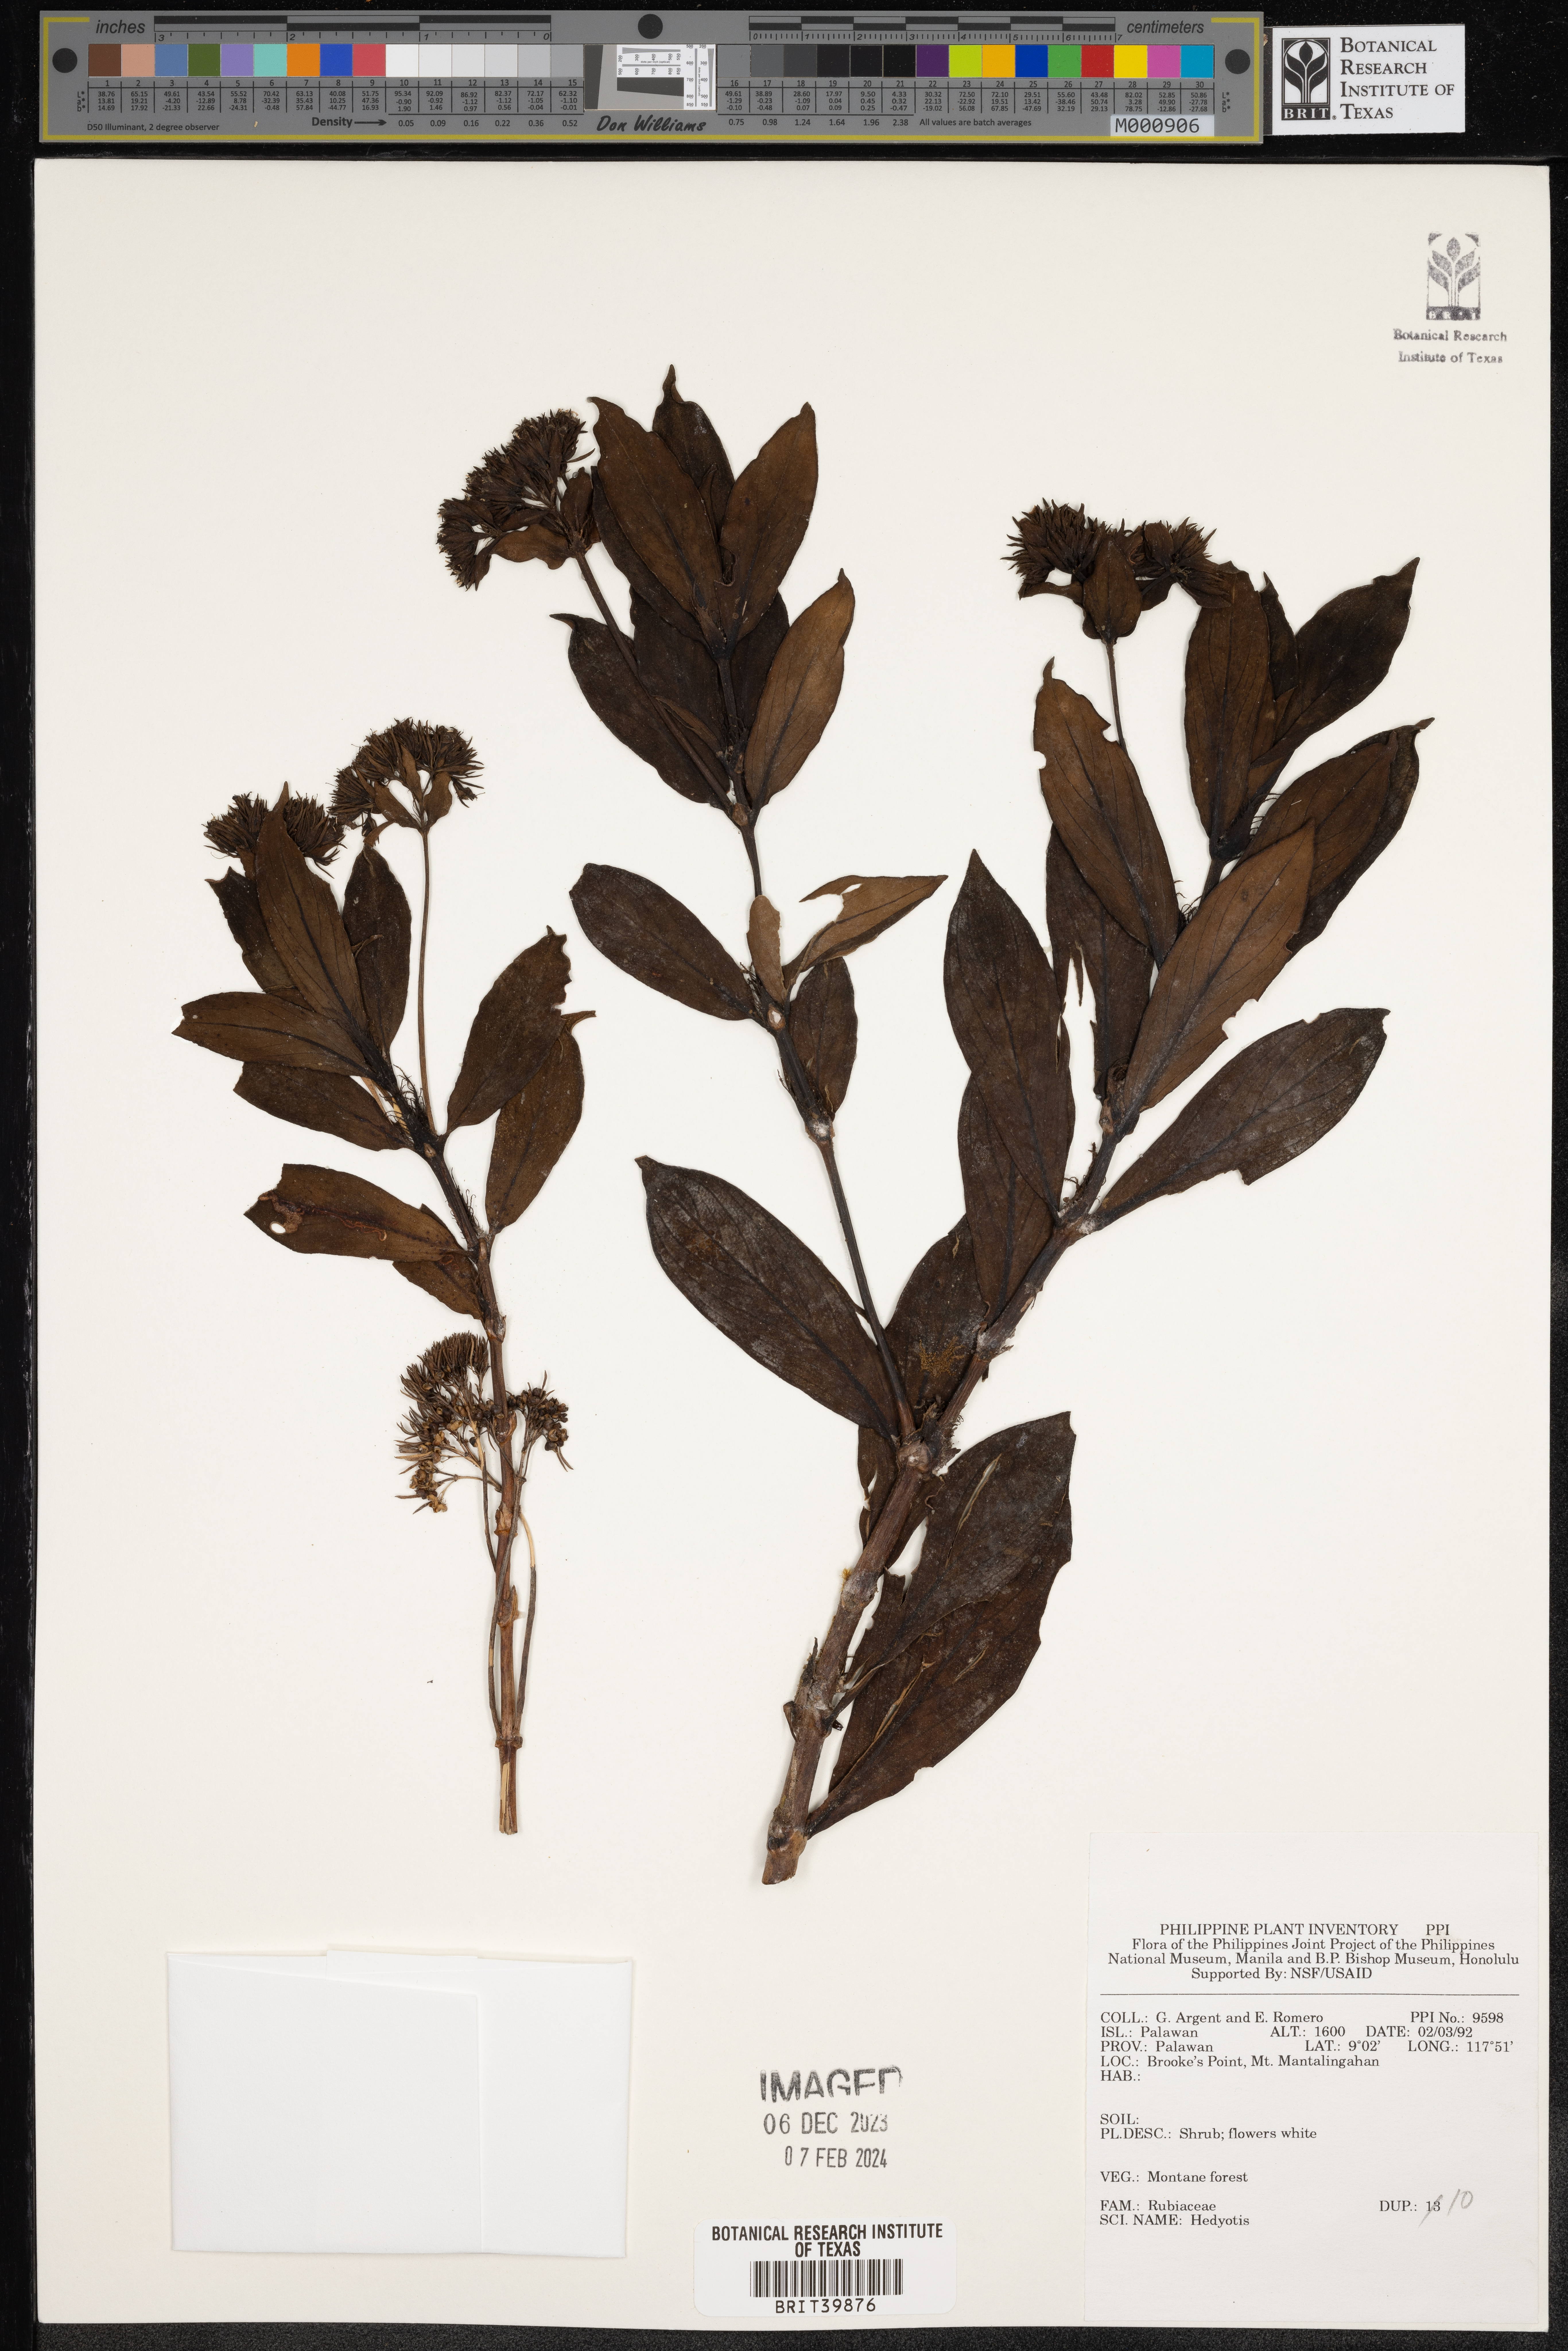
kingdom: Plantae
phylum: Tracheophyta
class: Magnoliopsida
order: Gentianales
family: Rubiaceae
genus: Hedyotis
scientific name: Hedyotis
